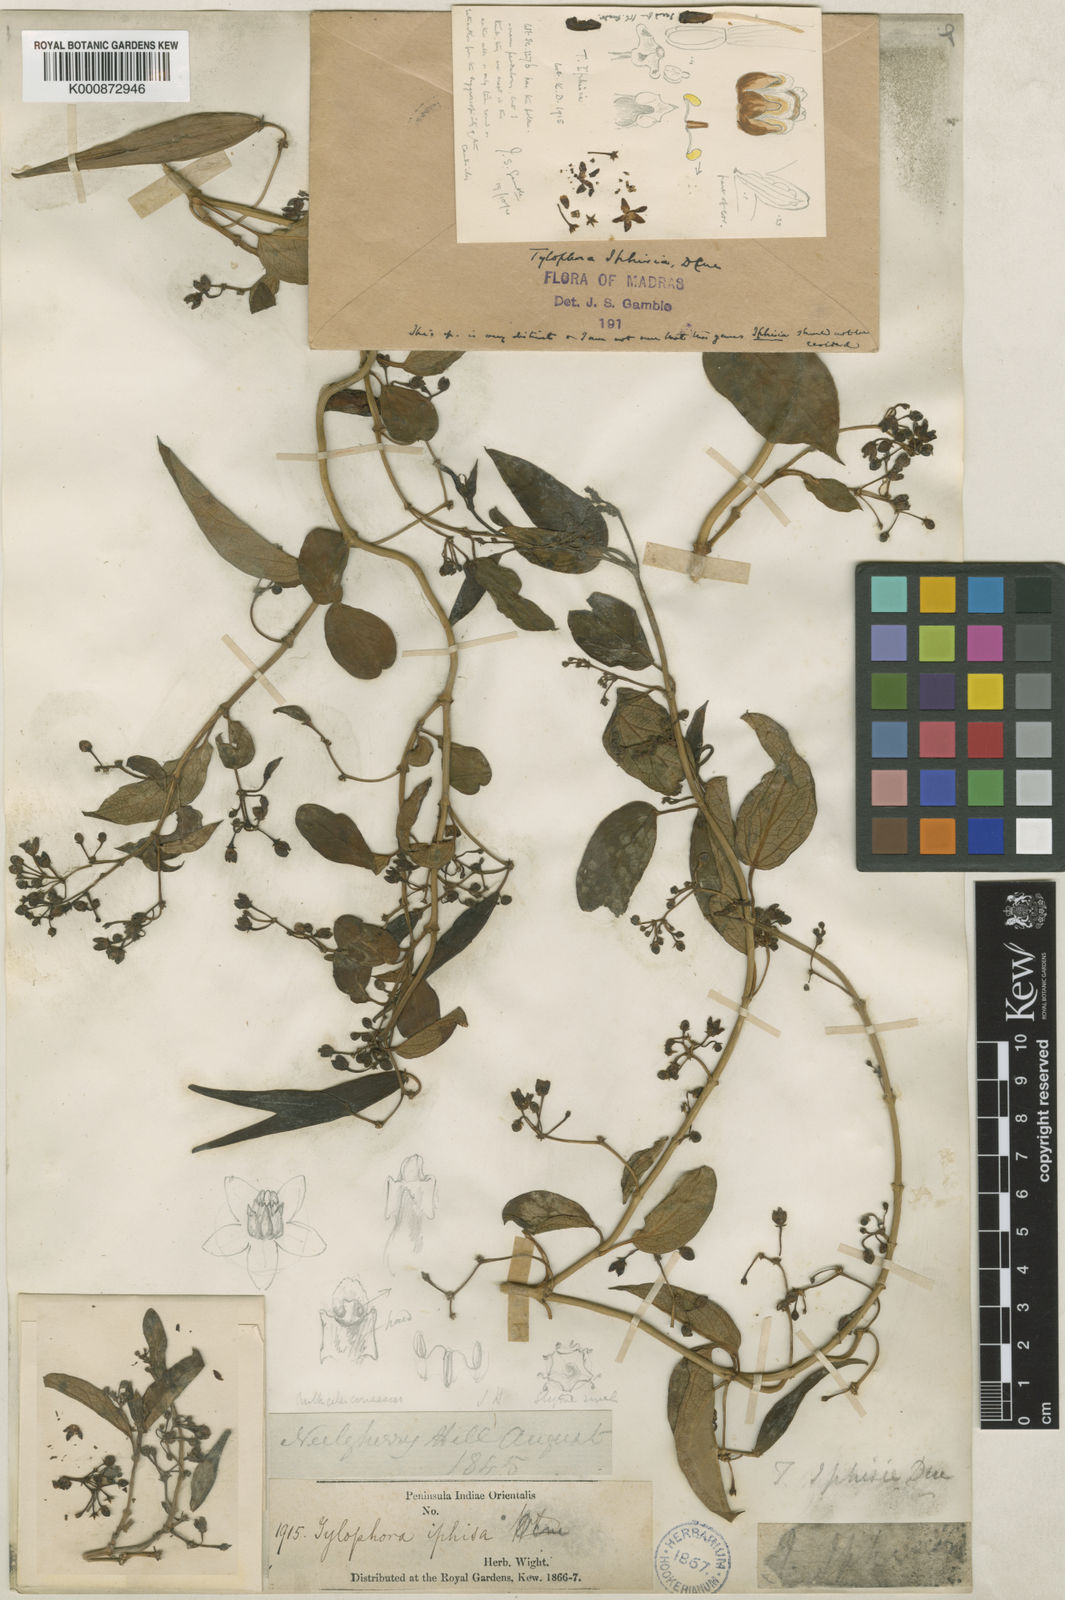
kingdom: Plantae
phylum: Tracheophyta
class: Magnoliopsida
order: Gentianales
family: Apocynaceae
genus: Vincetoxicum
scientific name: Vincetoxicum iphisia
